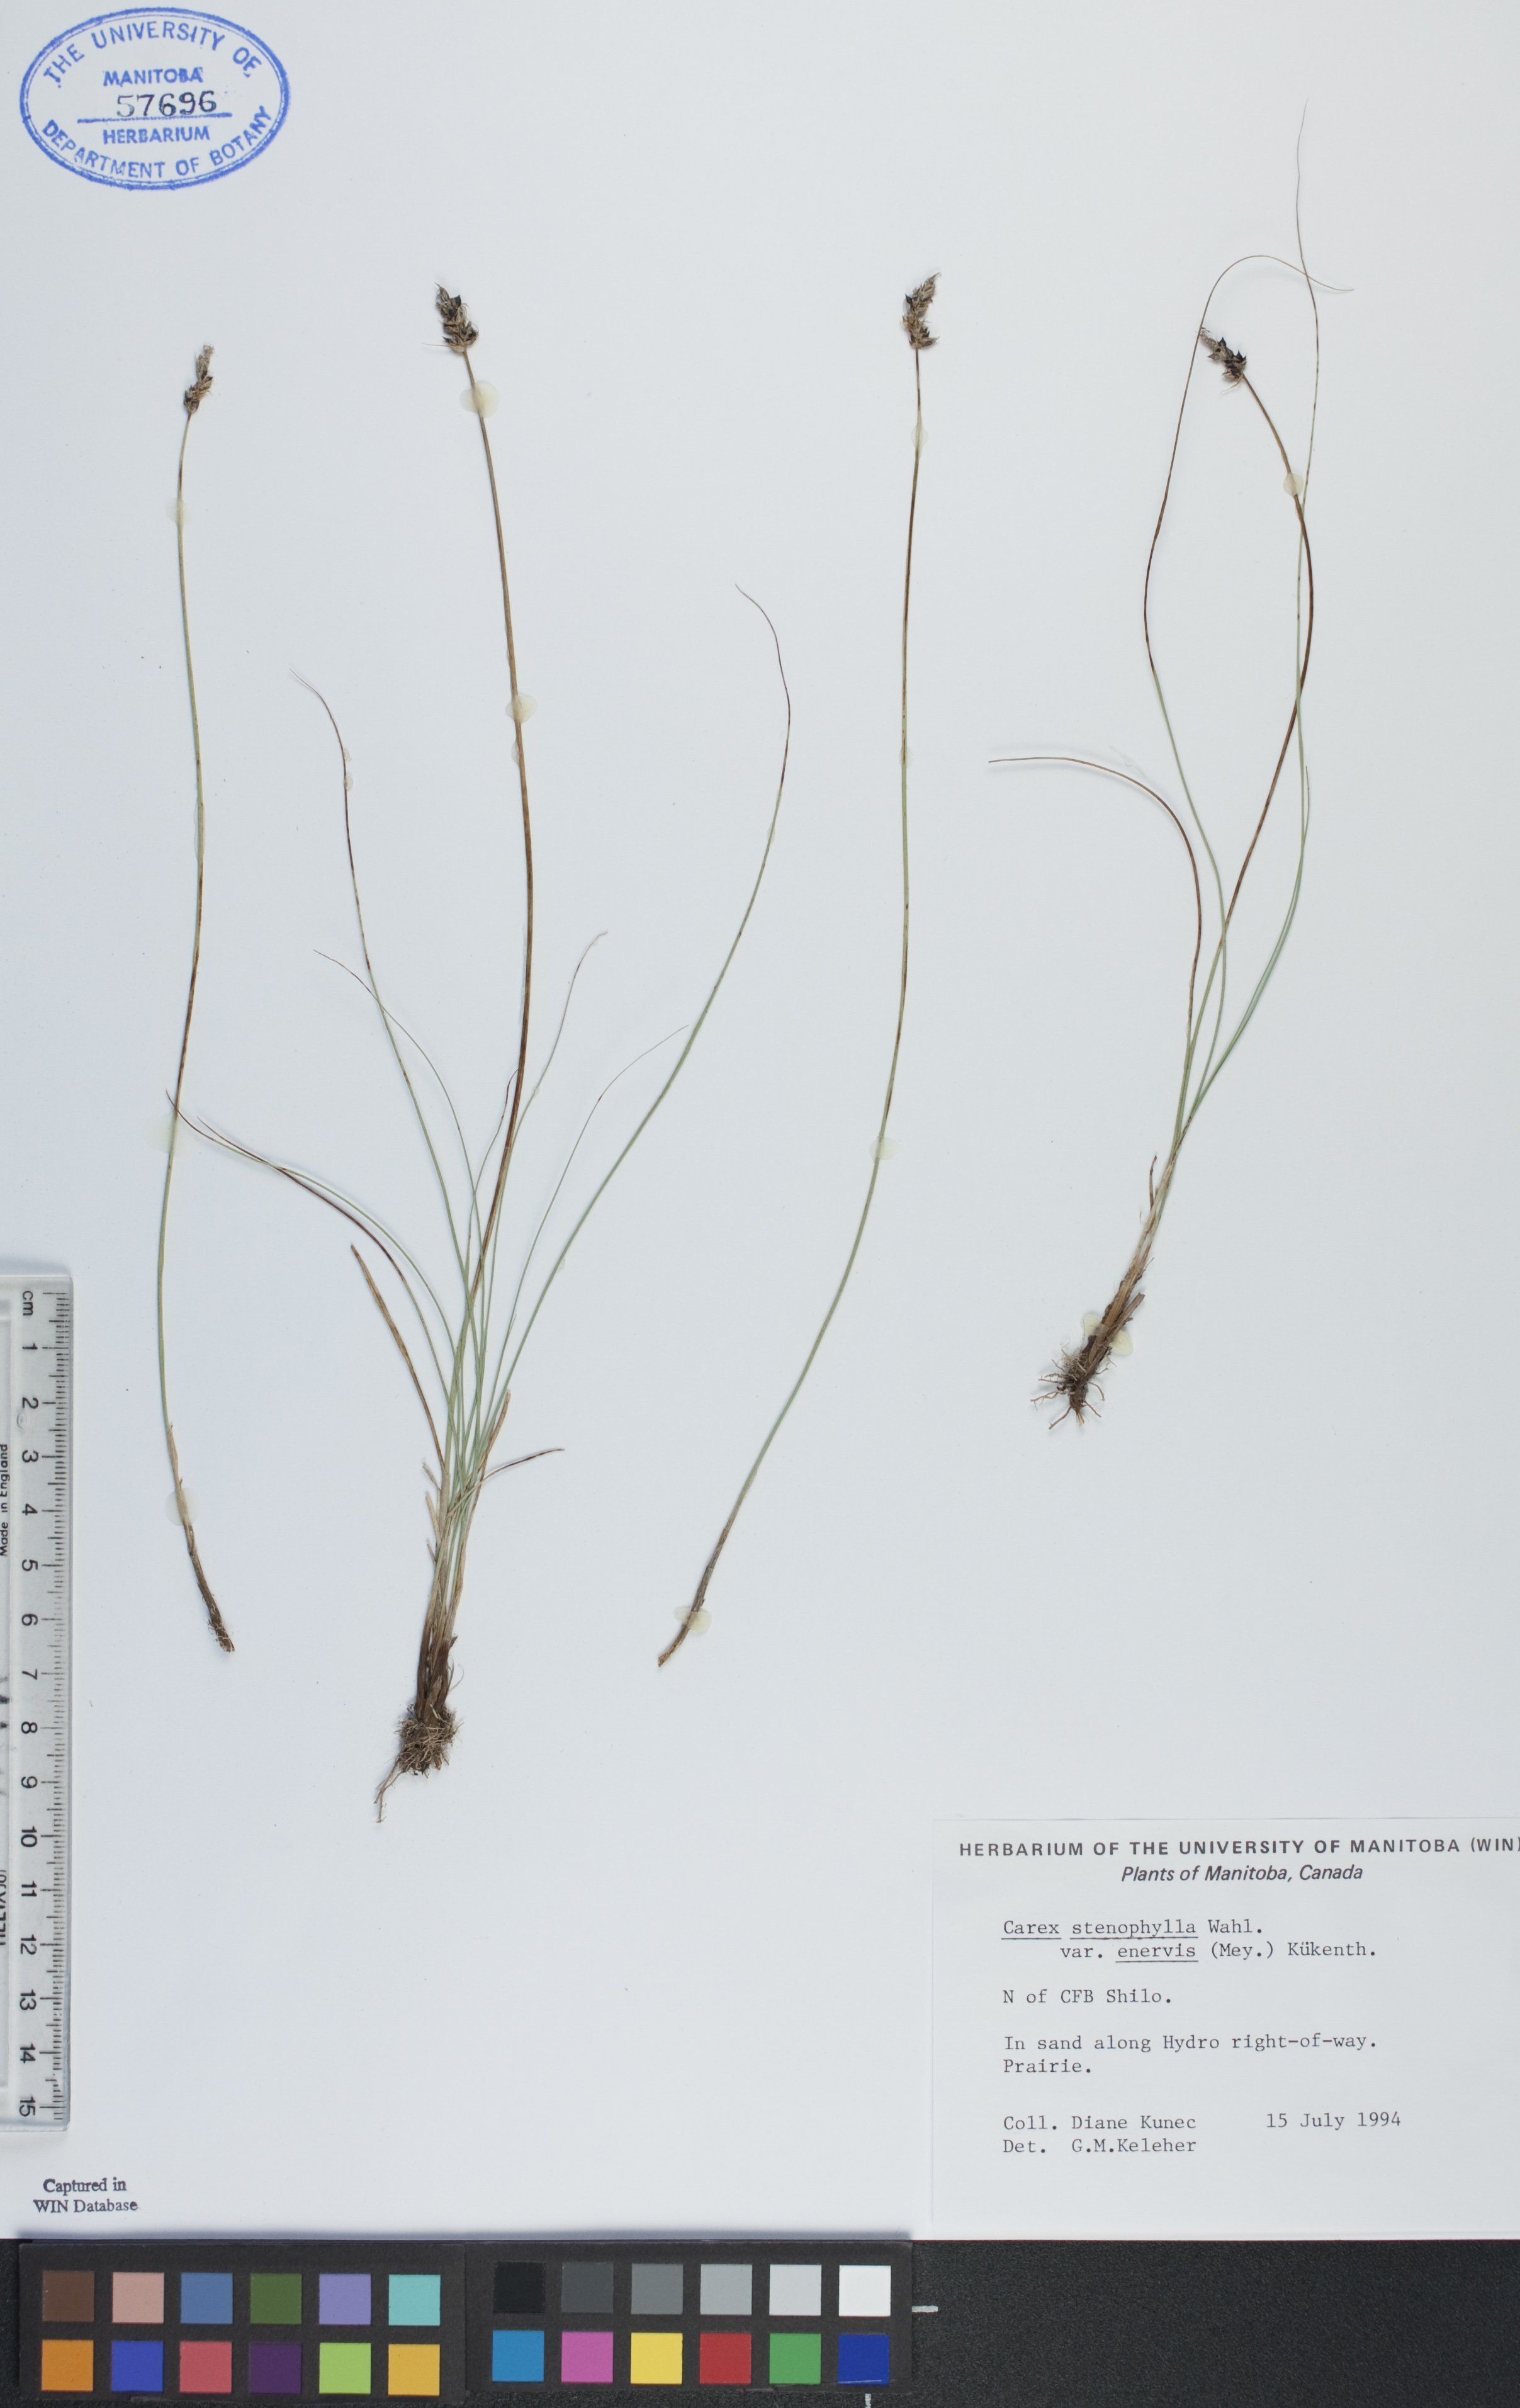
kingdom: Plantae
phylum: Tracheophyta
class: Liliopsida
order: Poales
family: Cyperaceae
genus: Carex
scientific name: Carex enervis
